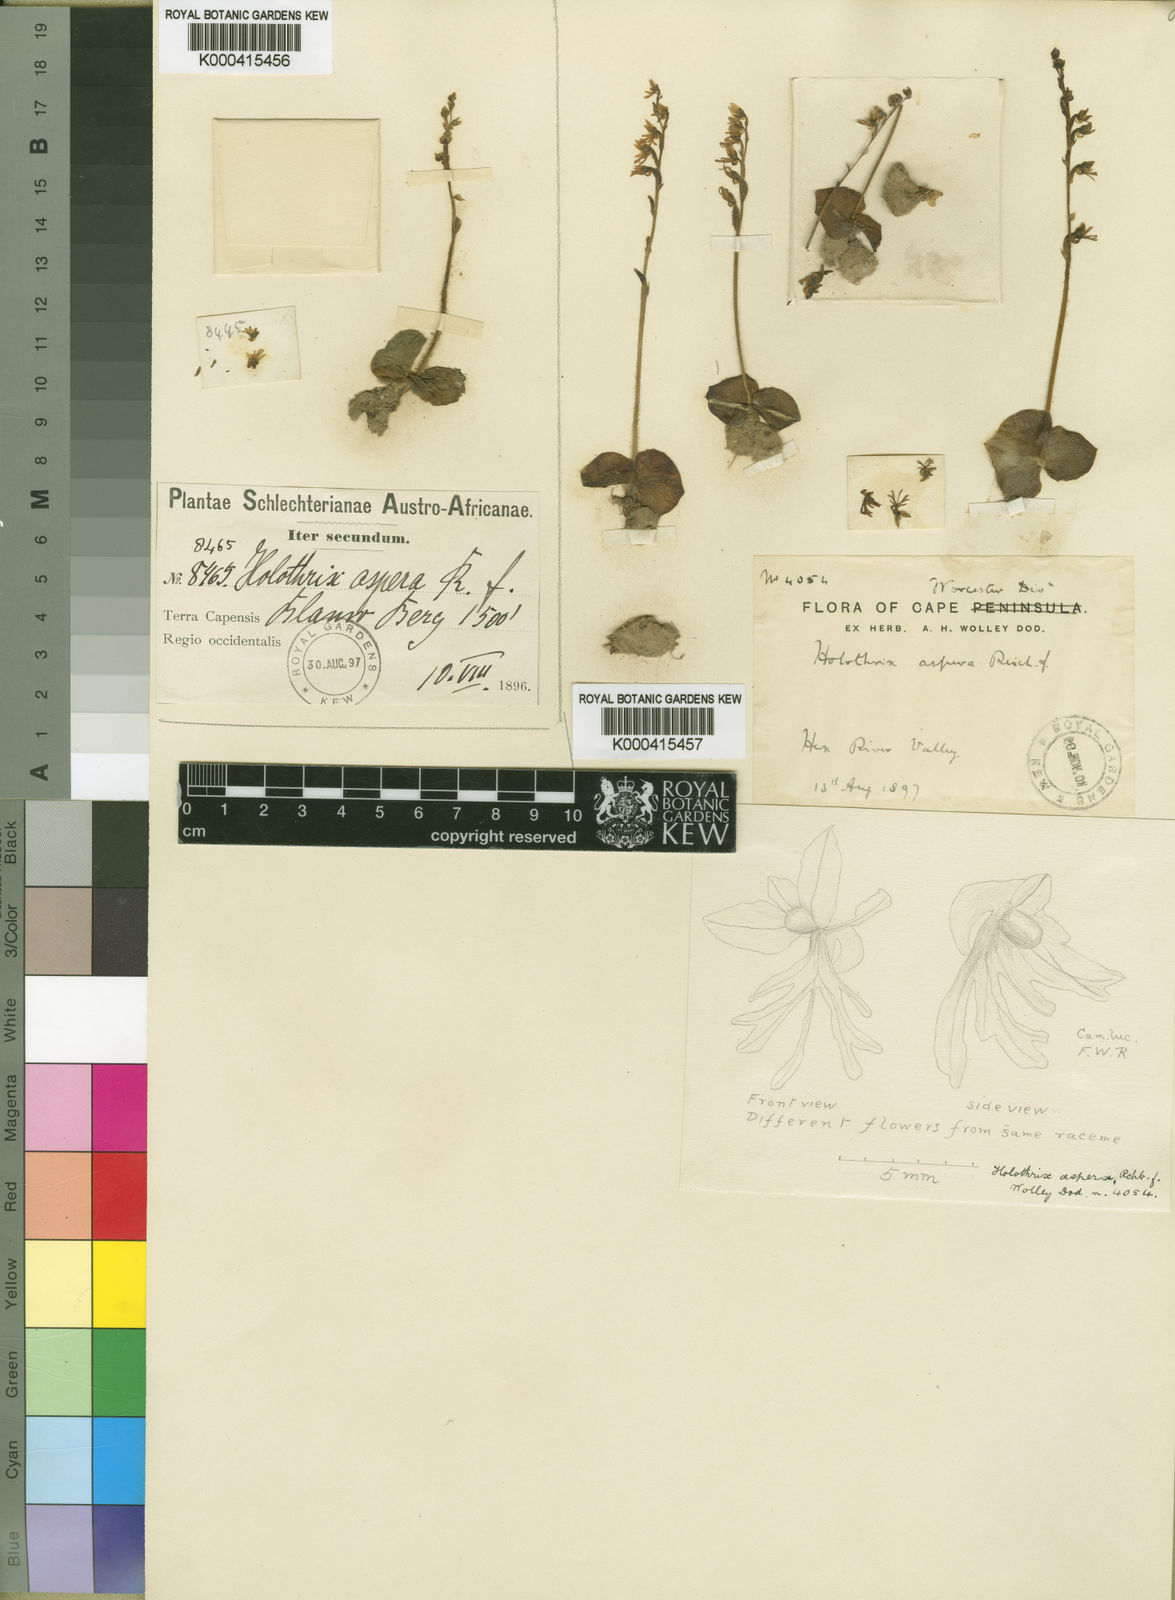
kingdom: Plantae
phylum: Tracheophyta
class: Liliopsida
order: Asparagales
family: Orchidaceae
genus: Holothrix
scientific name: Holothrix aspera
